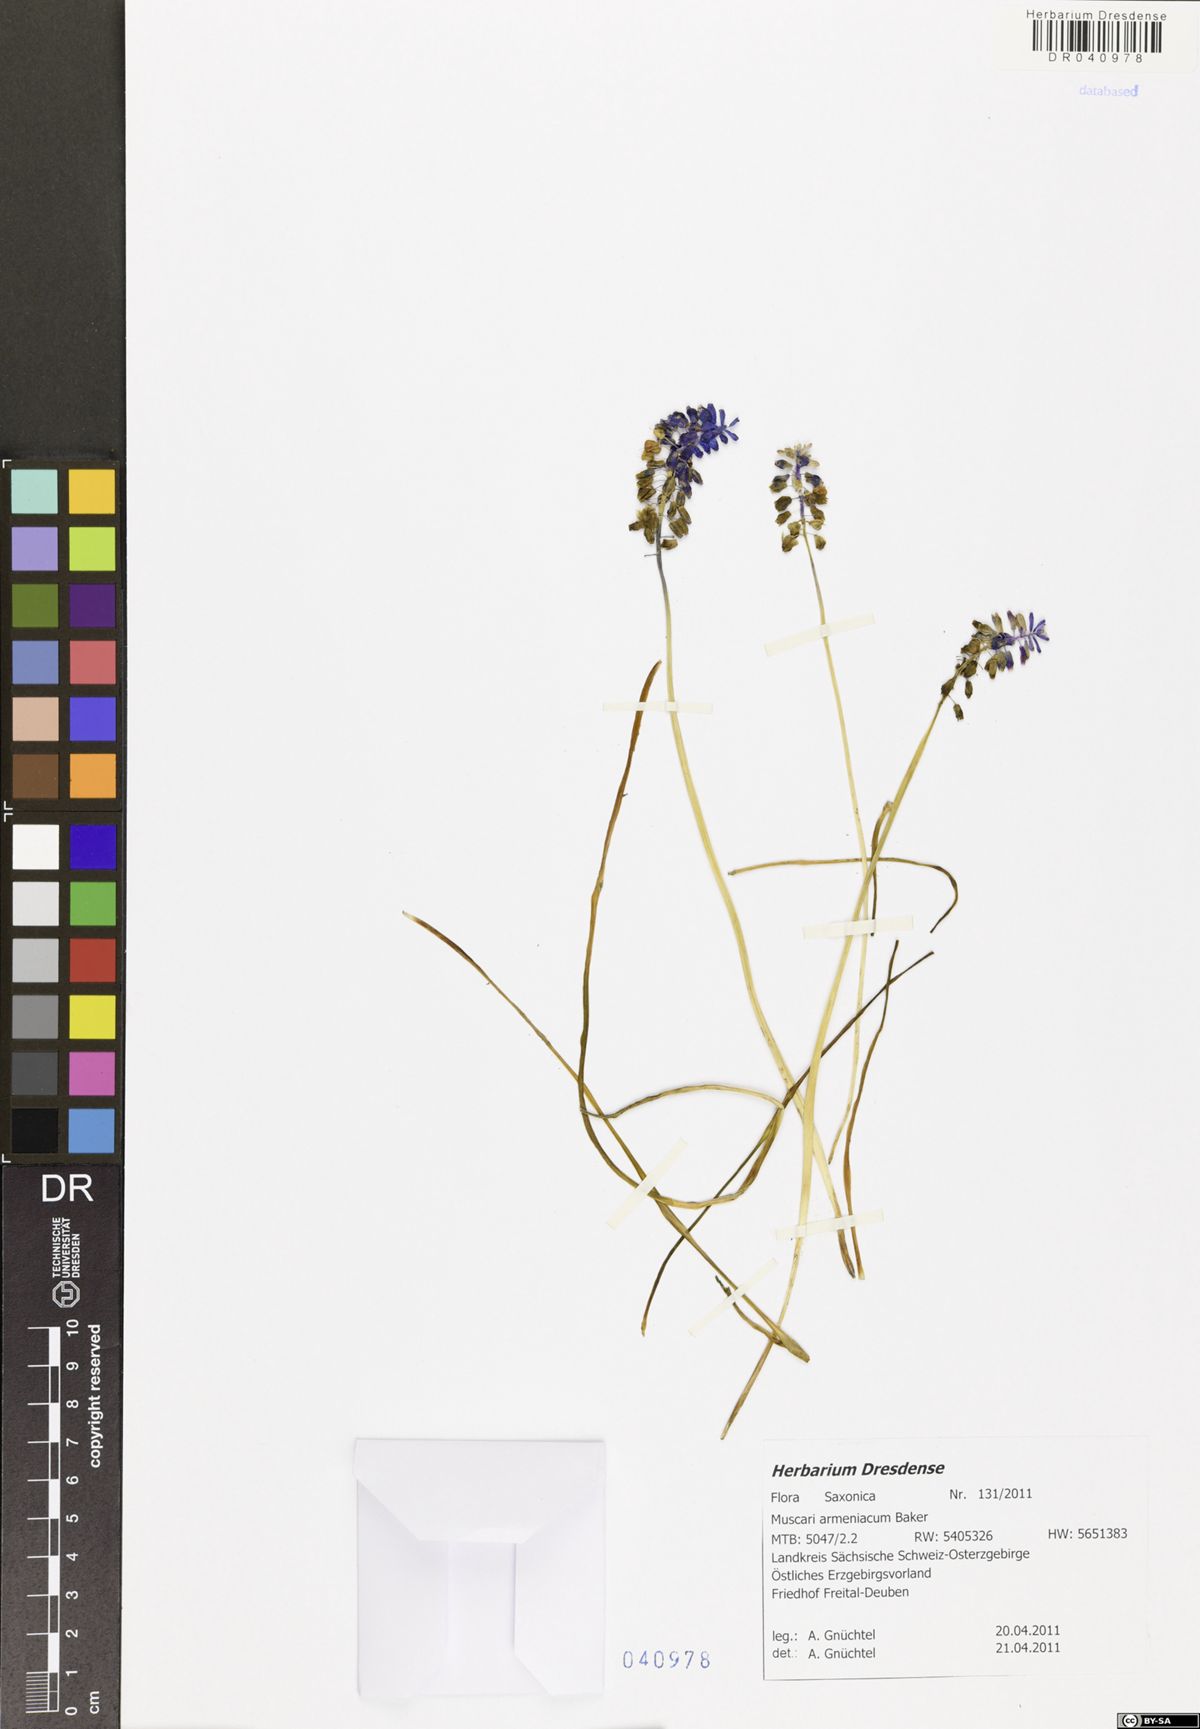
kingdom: Plantae
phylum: Tracheophyta
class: Liliopsida
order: Asparagales
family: Asparagaceae
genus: Muscari
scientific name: Muscari armeniacum
